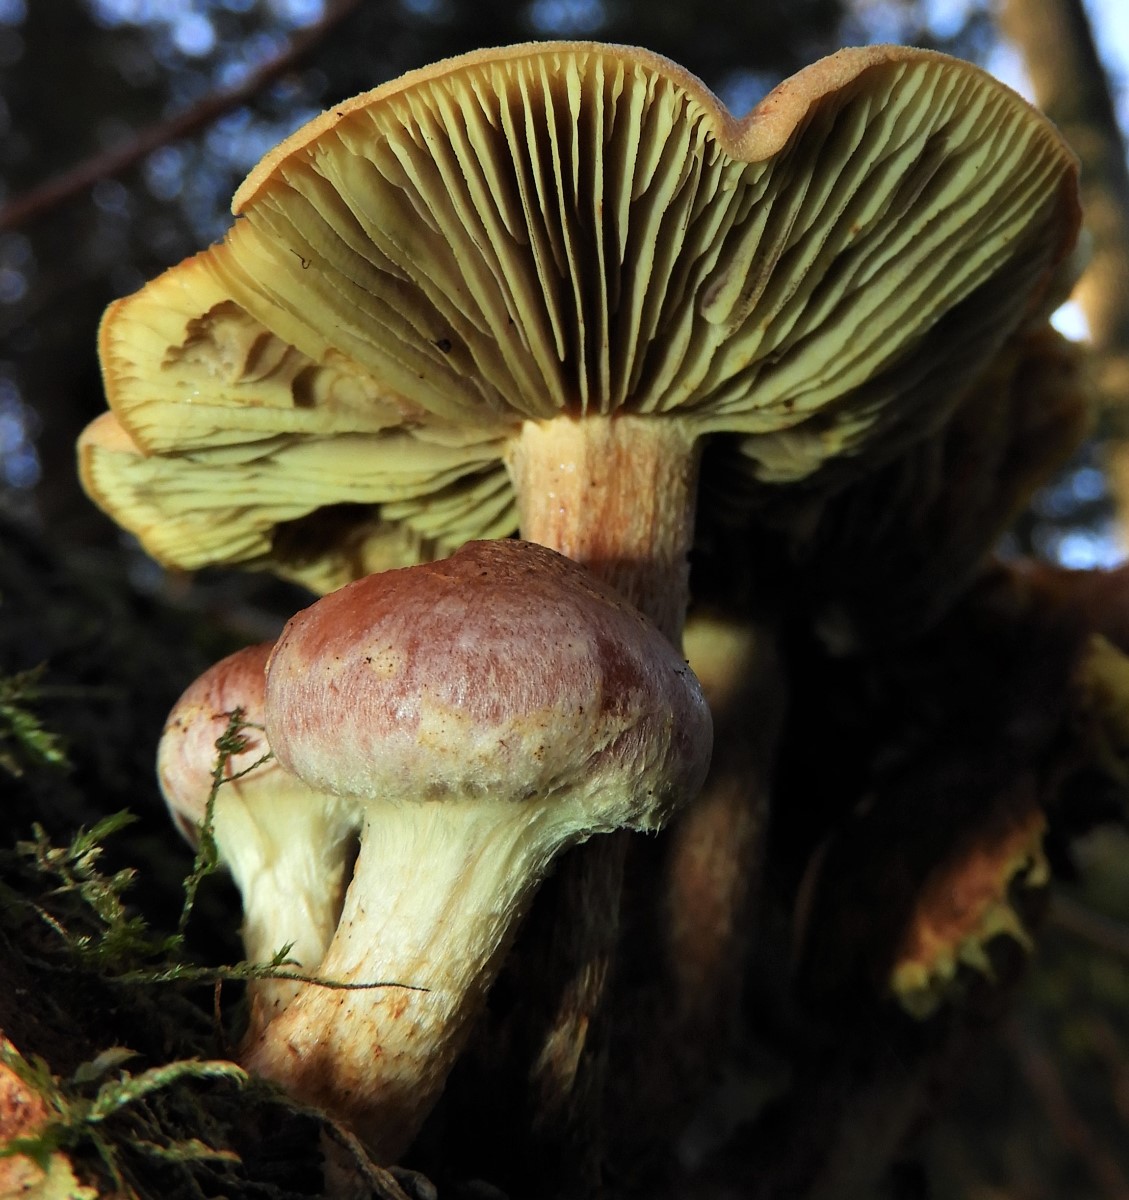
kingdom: Fungi
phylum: Basidiomycota
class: Agaricomycetes
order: Agaricales
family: Strophariaceae
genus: Hypholoma
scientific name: Hypholoma lateritium
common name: teglrød svovlhat
